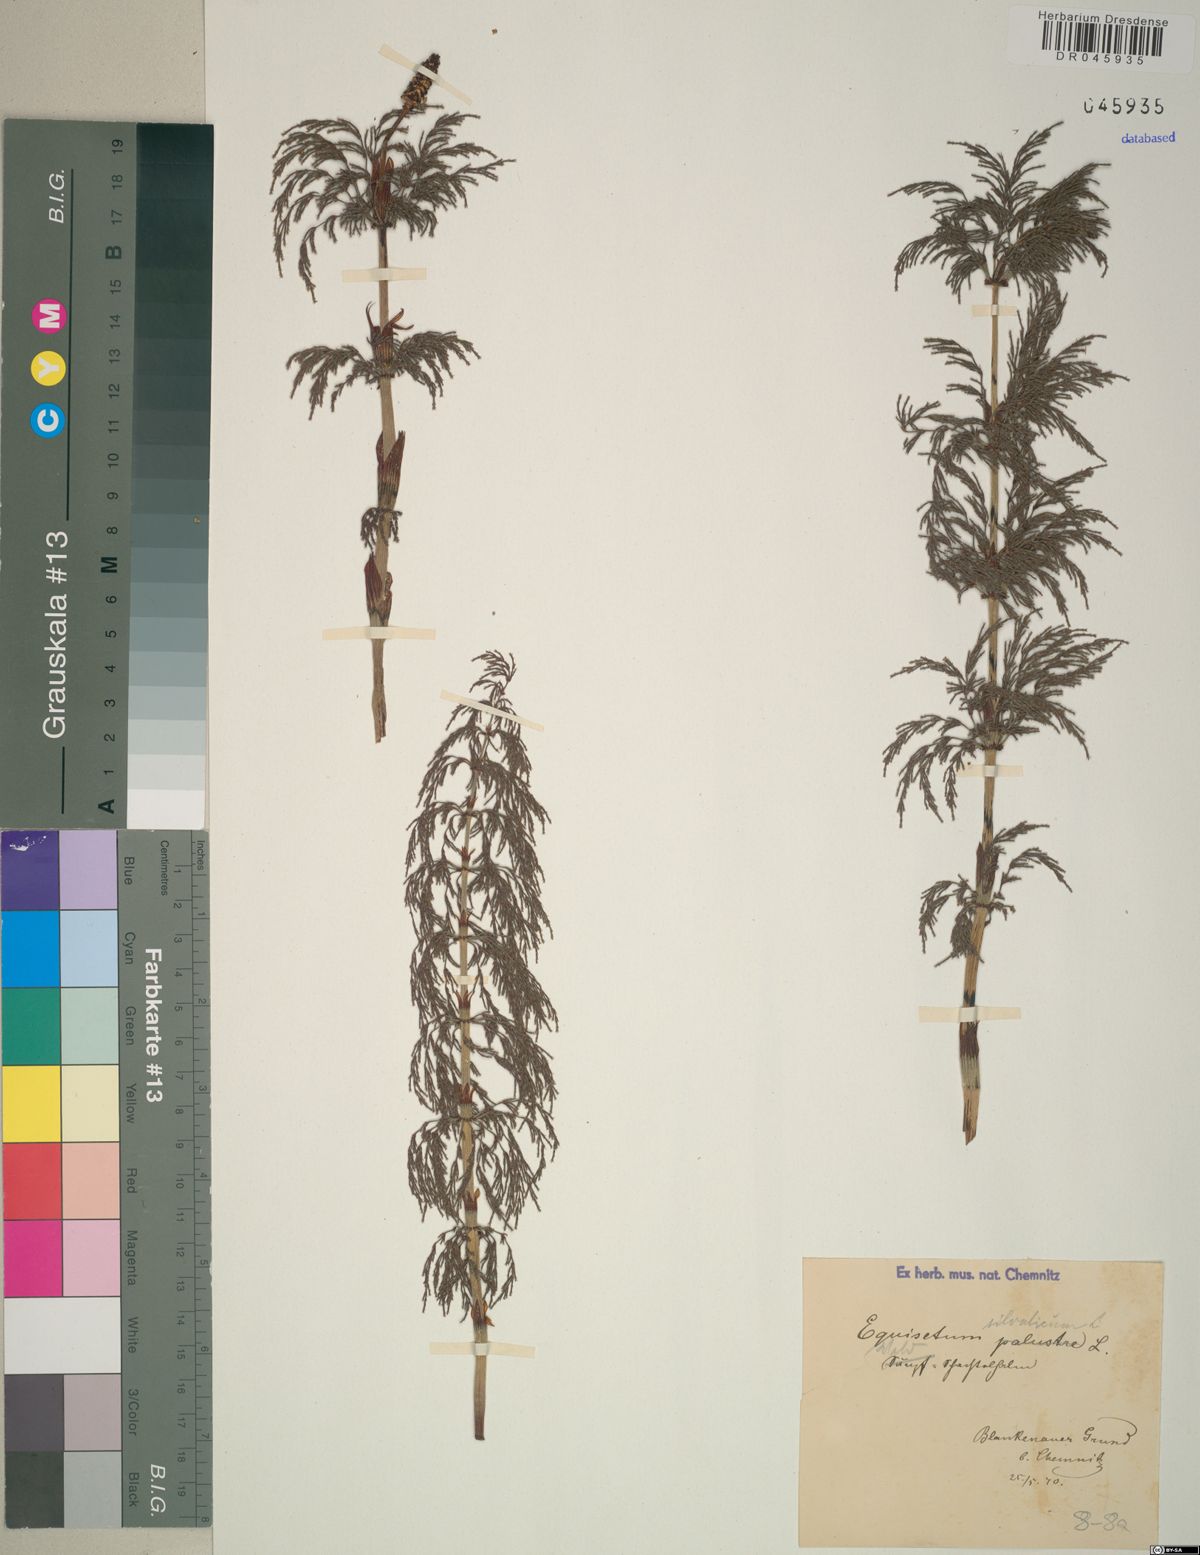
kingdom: Plantae
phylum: Tracheophyta
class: Polypodiopsida
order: Equisetales
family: Equisetaceae
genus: Equisetum
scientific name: Equisetum sylvaticum
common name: Wood horsetail
